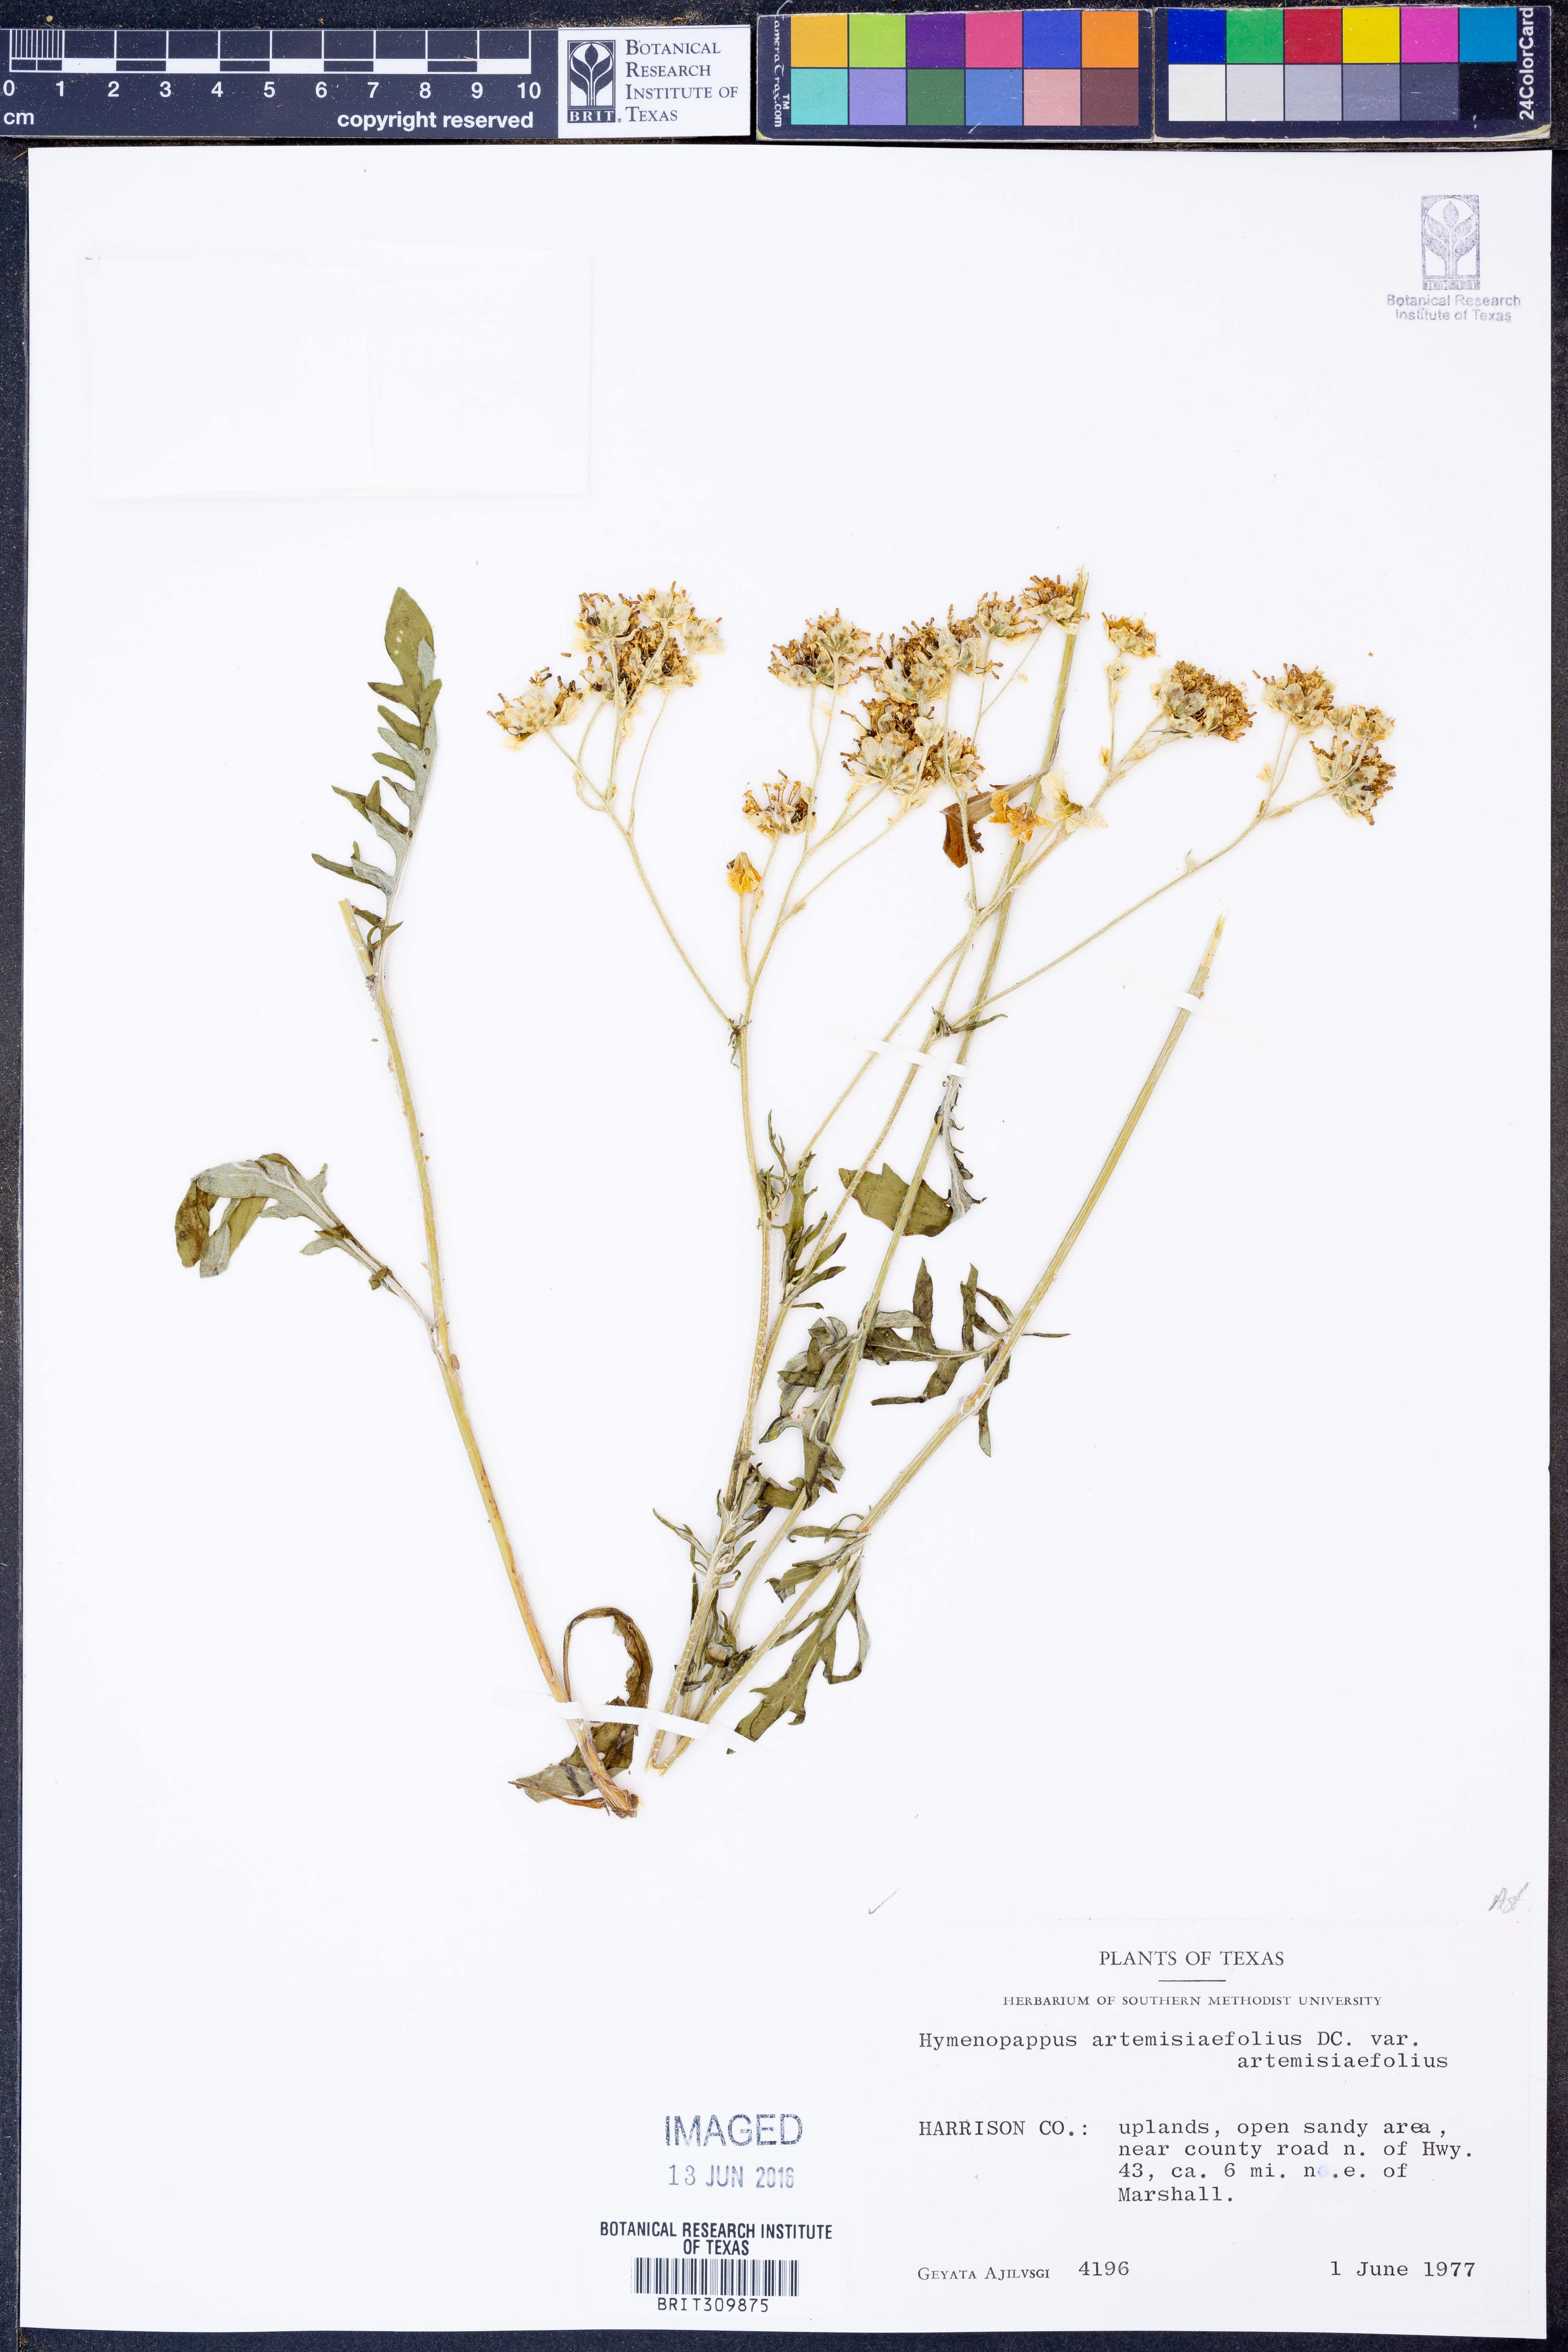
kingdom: Plantae
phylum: Tracheophyta
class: Magnoliopsida
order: Asterales
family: Asteraceae
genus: Hymenopappus
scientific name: Hymenopappus artemisiifolius
